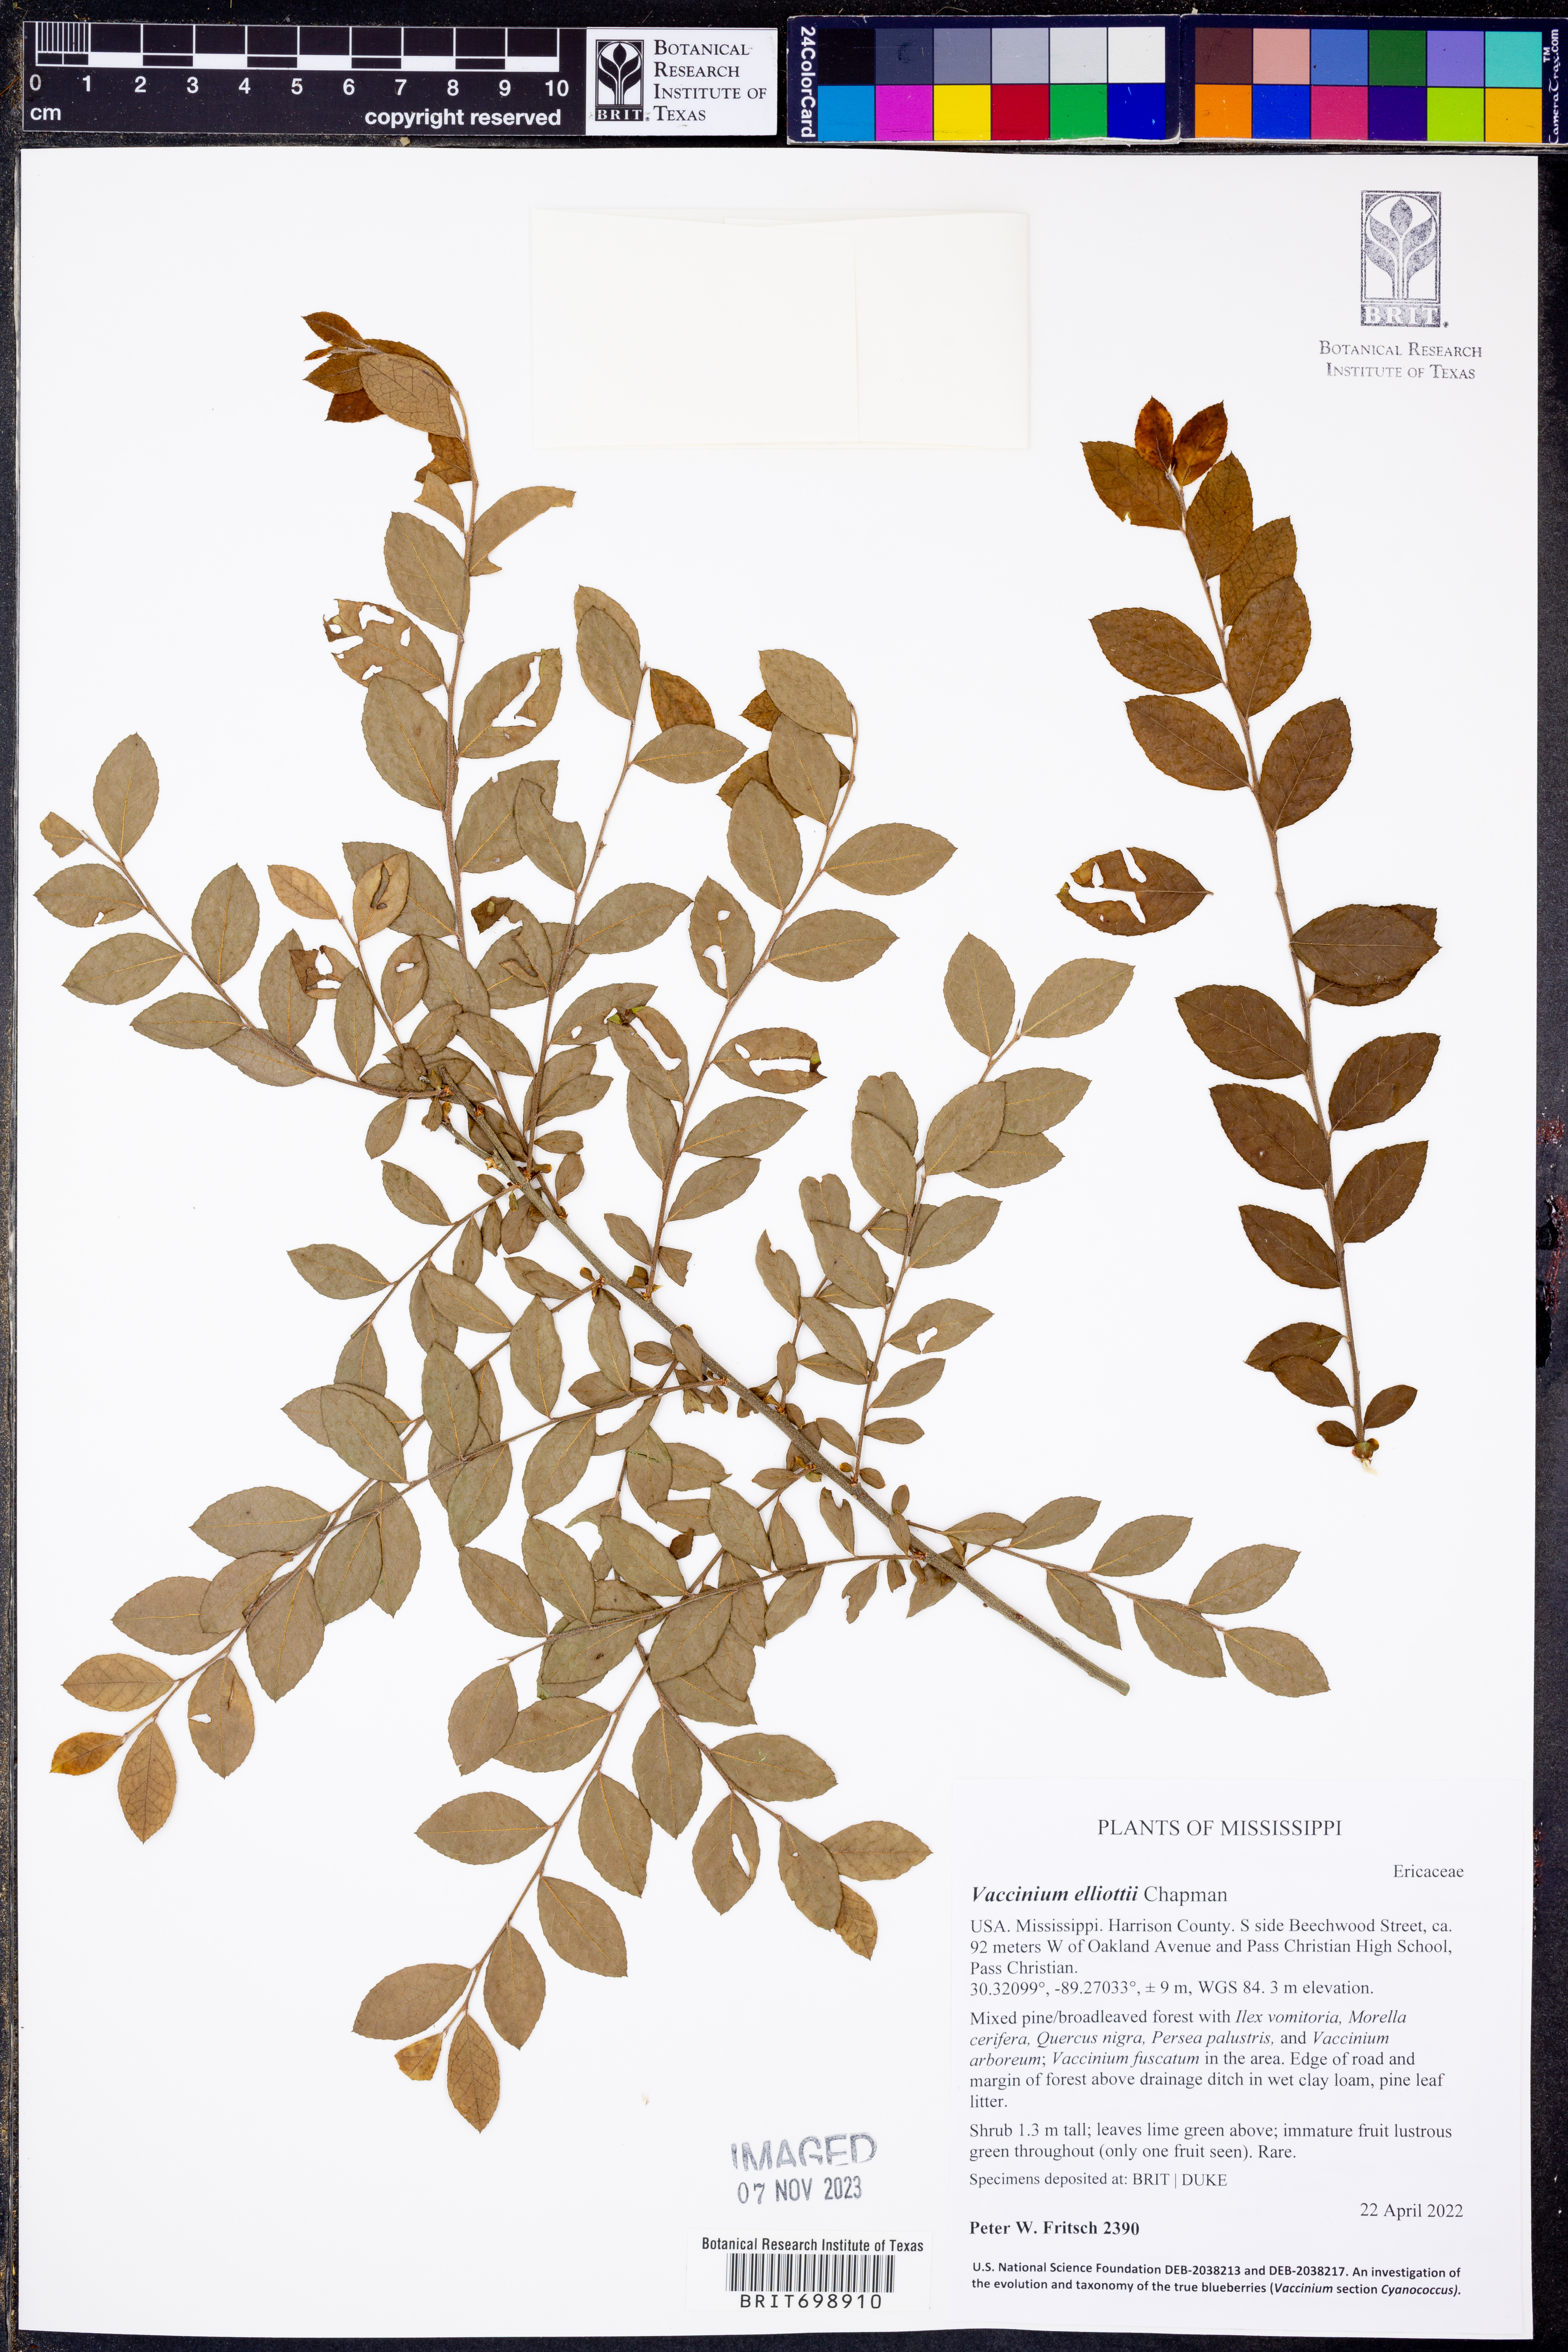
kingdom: Plantae
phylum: Tracheophyta
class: Magnoliopsida
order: Ericales
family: Ericaceae
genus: Vaccinium
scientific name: Vaccinium corymbosum
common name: Blueberry
